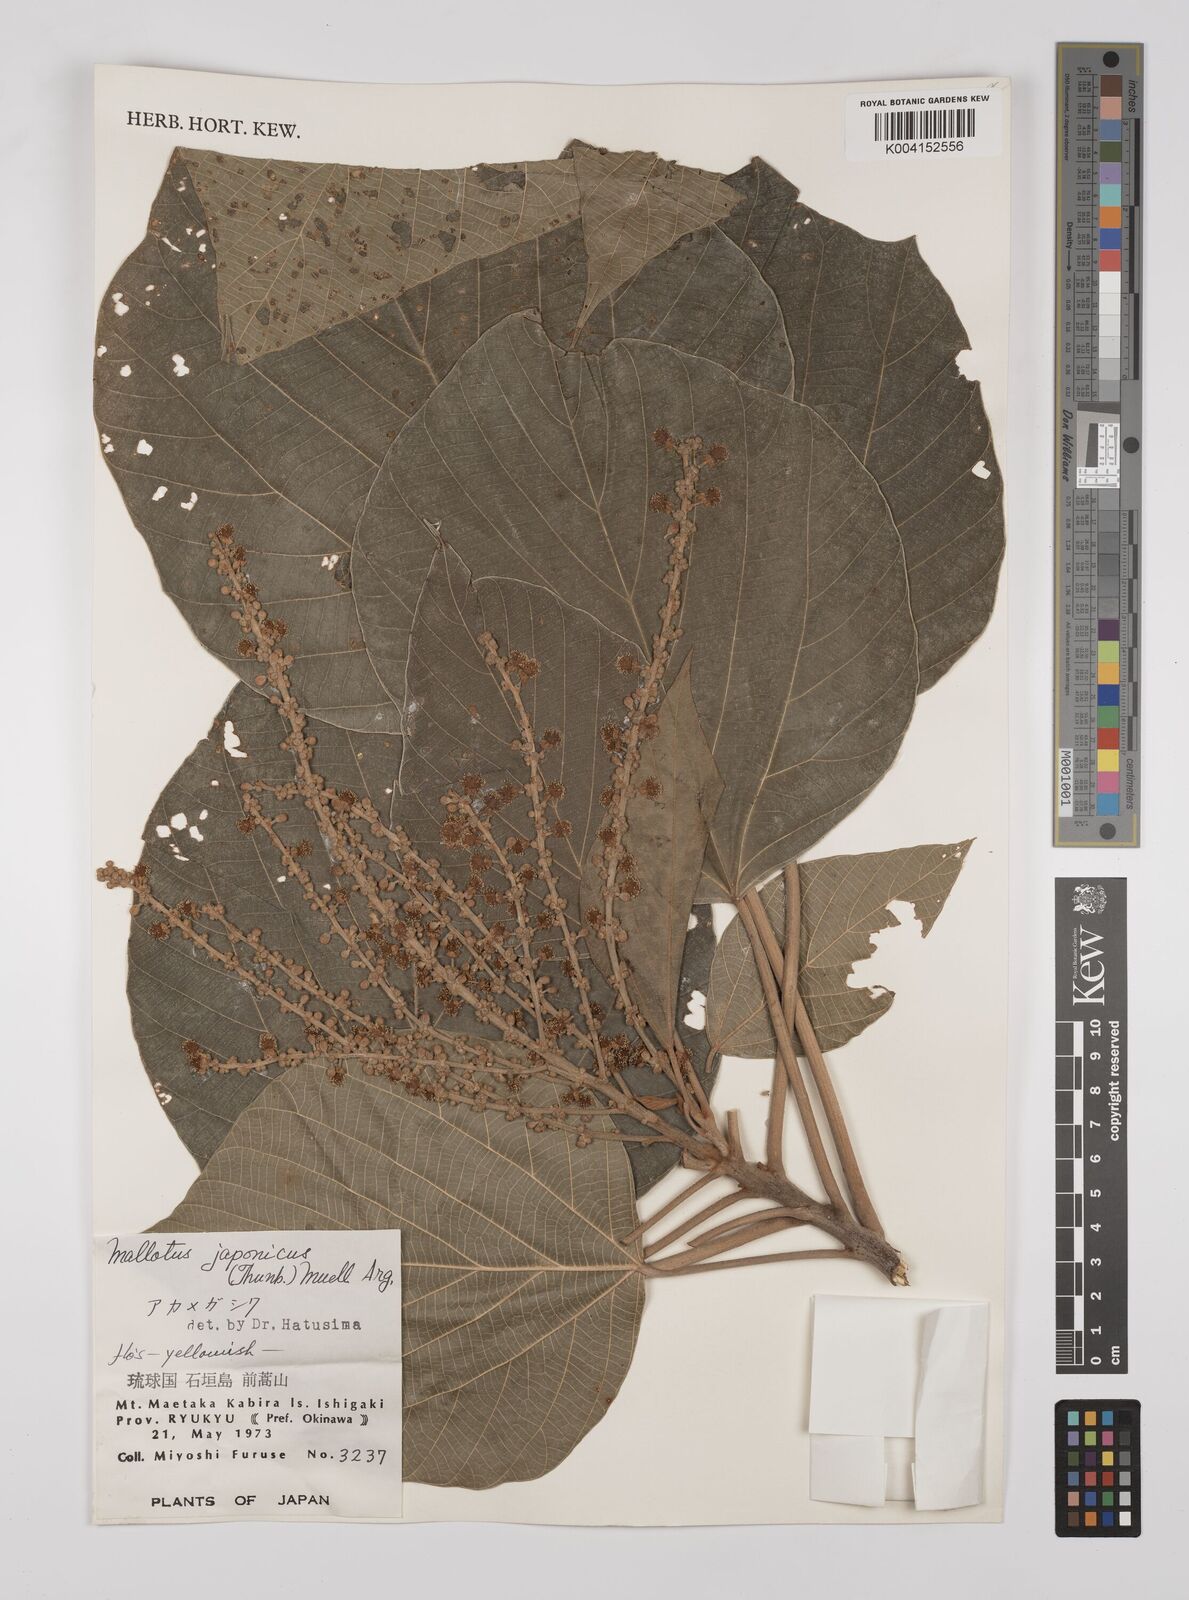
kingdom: Plantae
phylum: Tracheophyta
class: Magnoliopsida
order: Malpighiales
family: Euphorbiaceae
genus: Mallotus
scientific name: Mallotus japonicus
